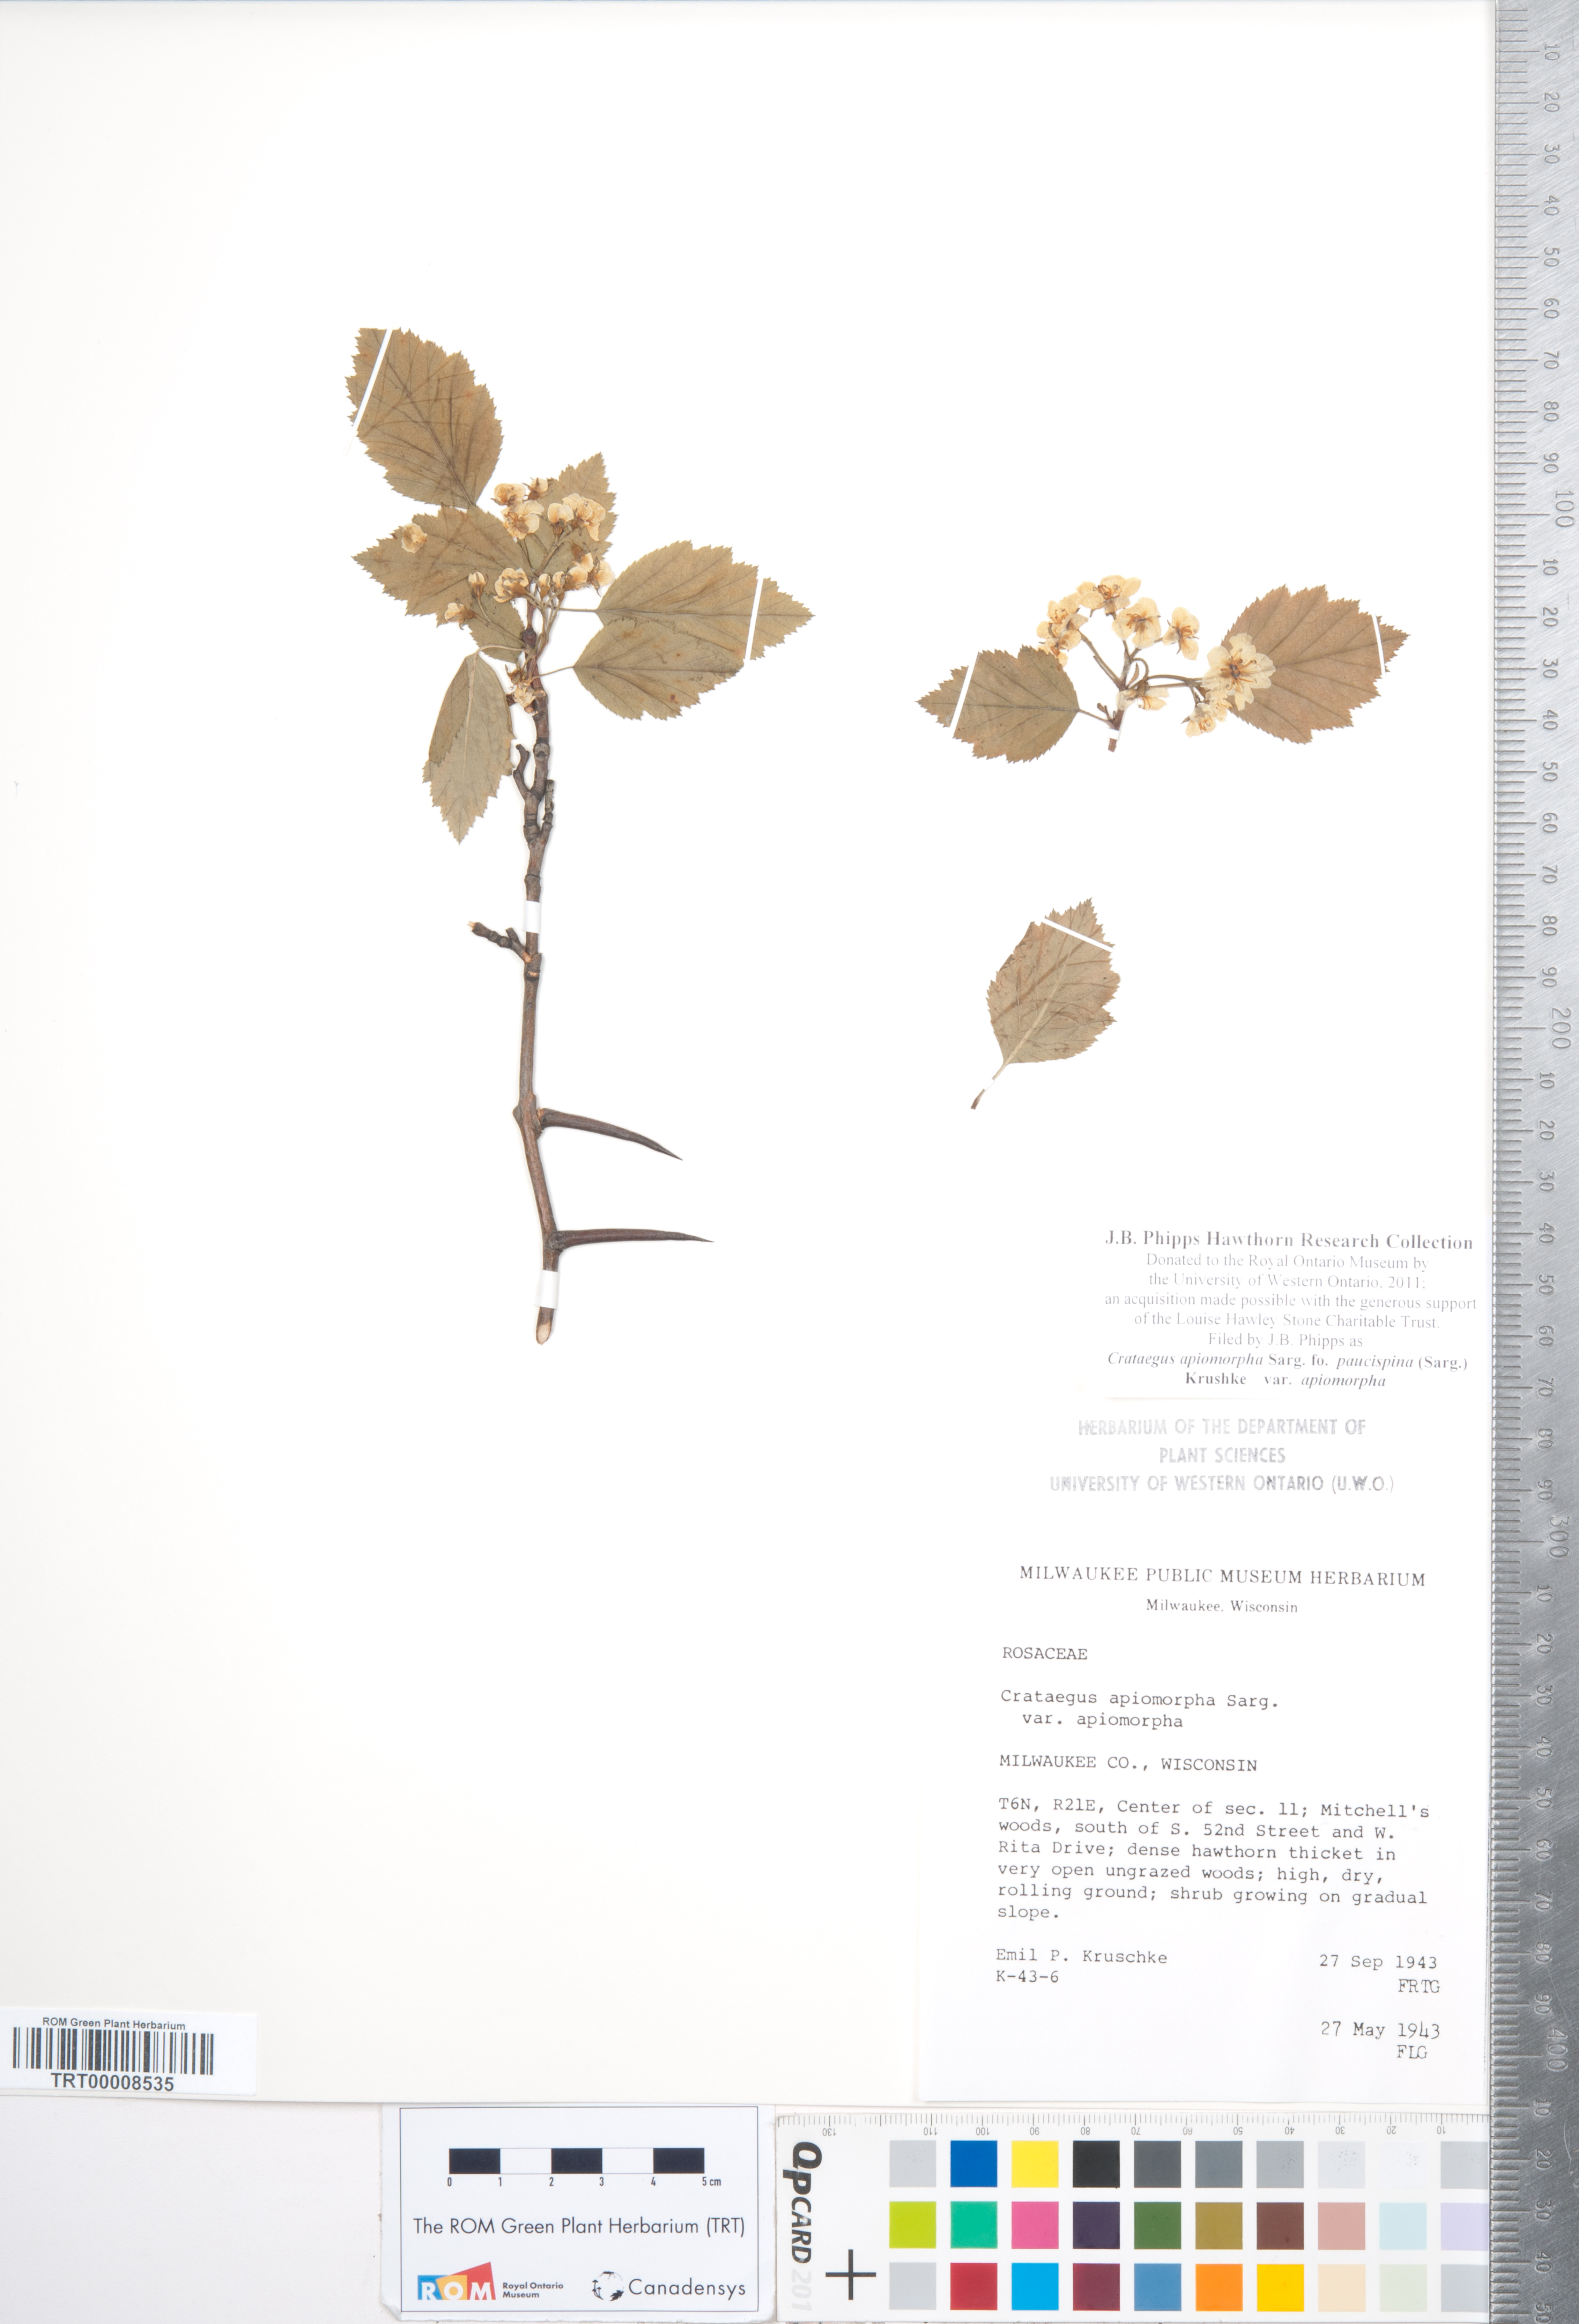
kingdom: Plantae
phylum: Tracheophyta
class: Magnoliopsida
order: Rosales
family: Rosaceae
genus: Crataegus
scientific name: Crataegus fluviatilis
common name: Fort sheridan hawthorn
